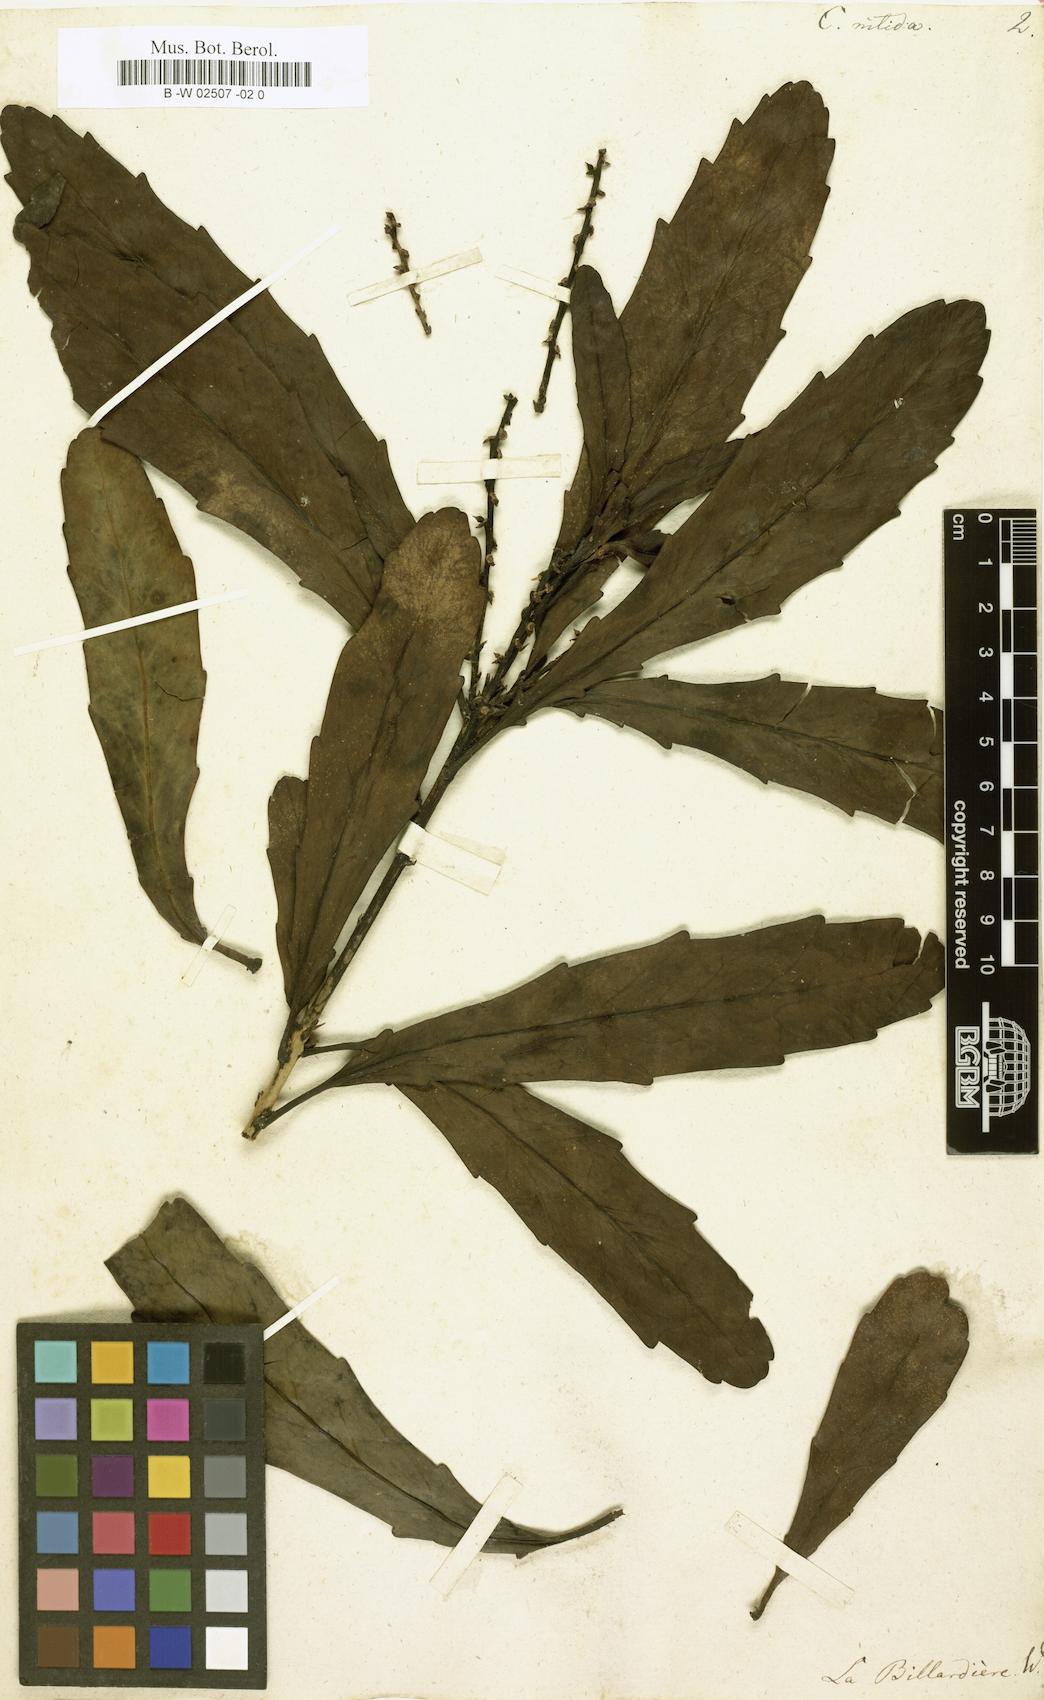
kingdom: Plantae
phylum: Tracheophyta
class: Magnoliopsida
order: Proteales
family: Proteaceae
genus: Cenarrhenes
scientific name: Cenarrhenes nitida
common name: Native plum
